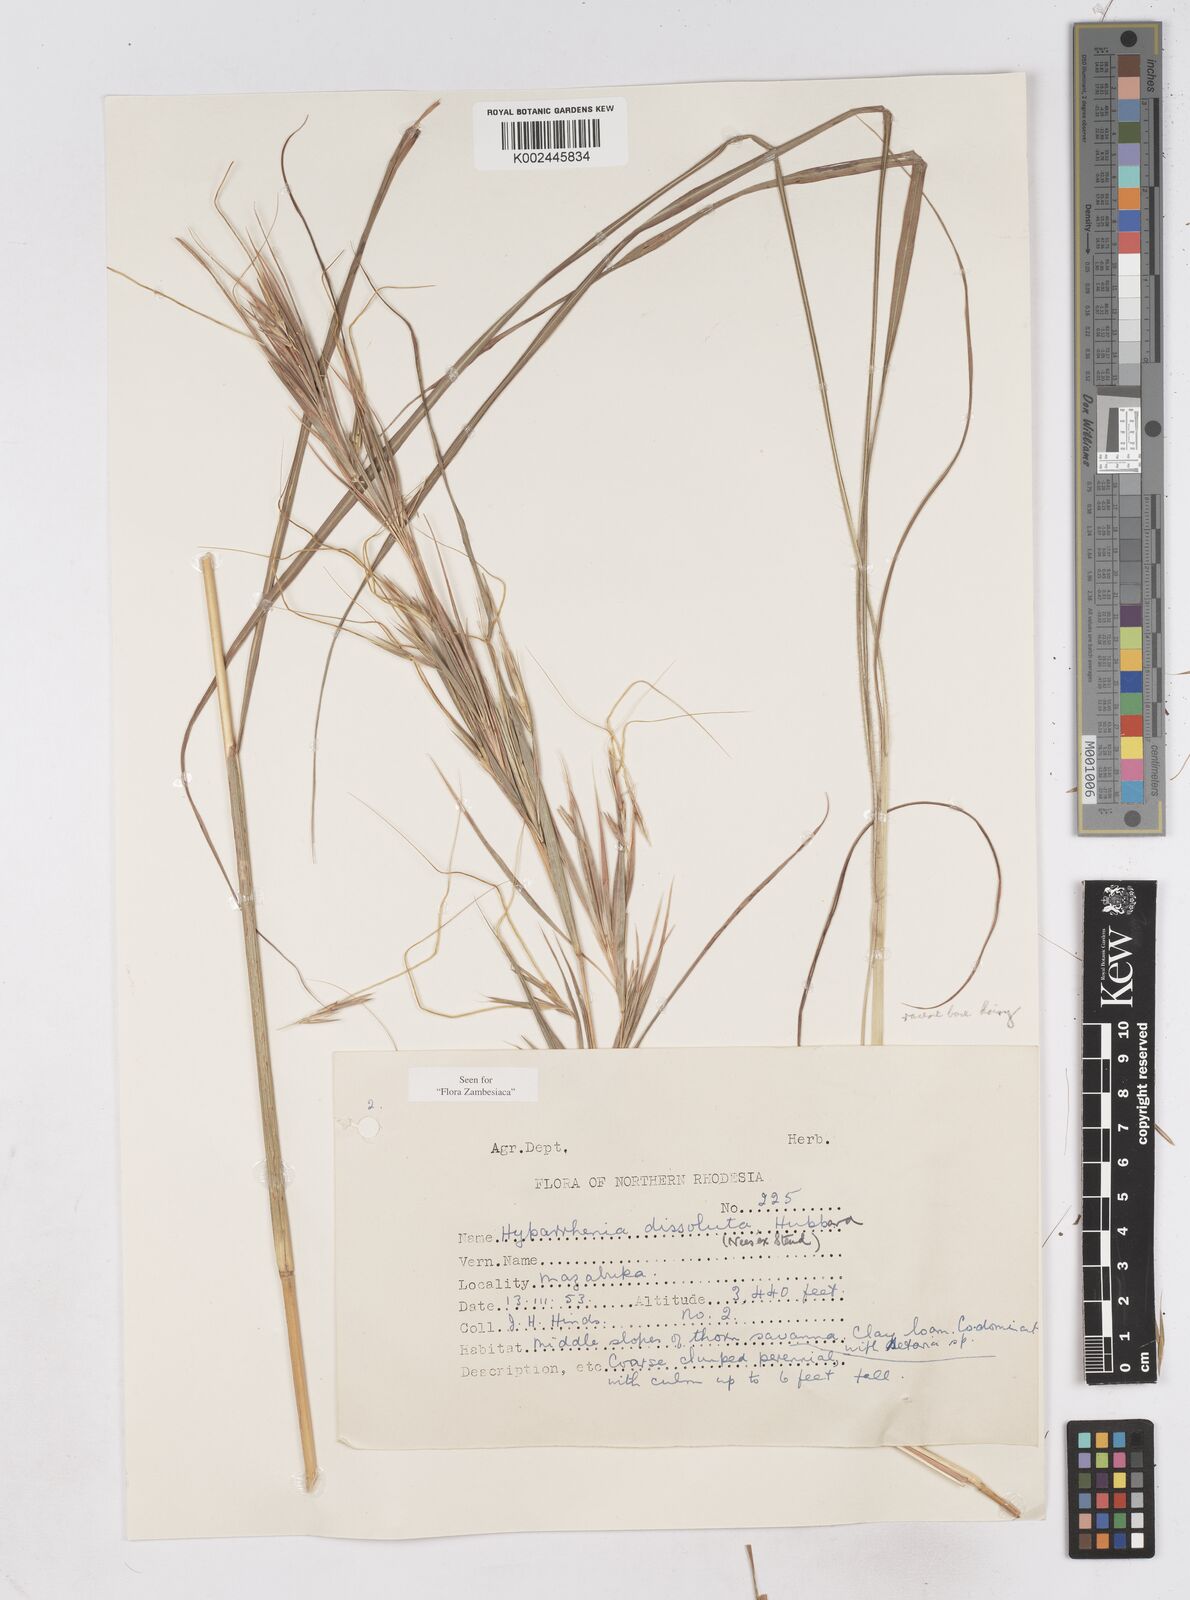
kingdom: Plantae
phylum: Tracheophyta
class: Liliopsida
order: Poales
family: Poaceae
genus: Hyperthelia
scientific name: Hyperthelia dissoluta
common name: Yellow thatching grass
